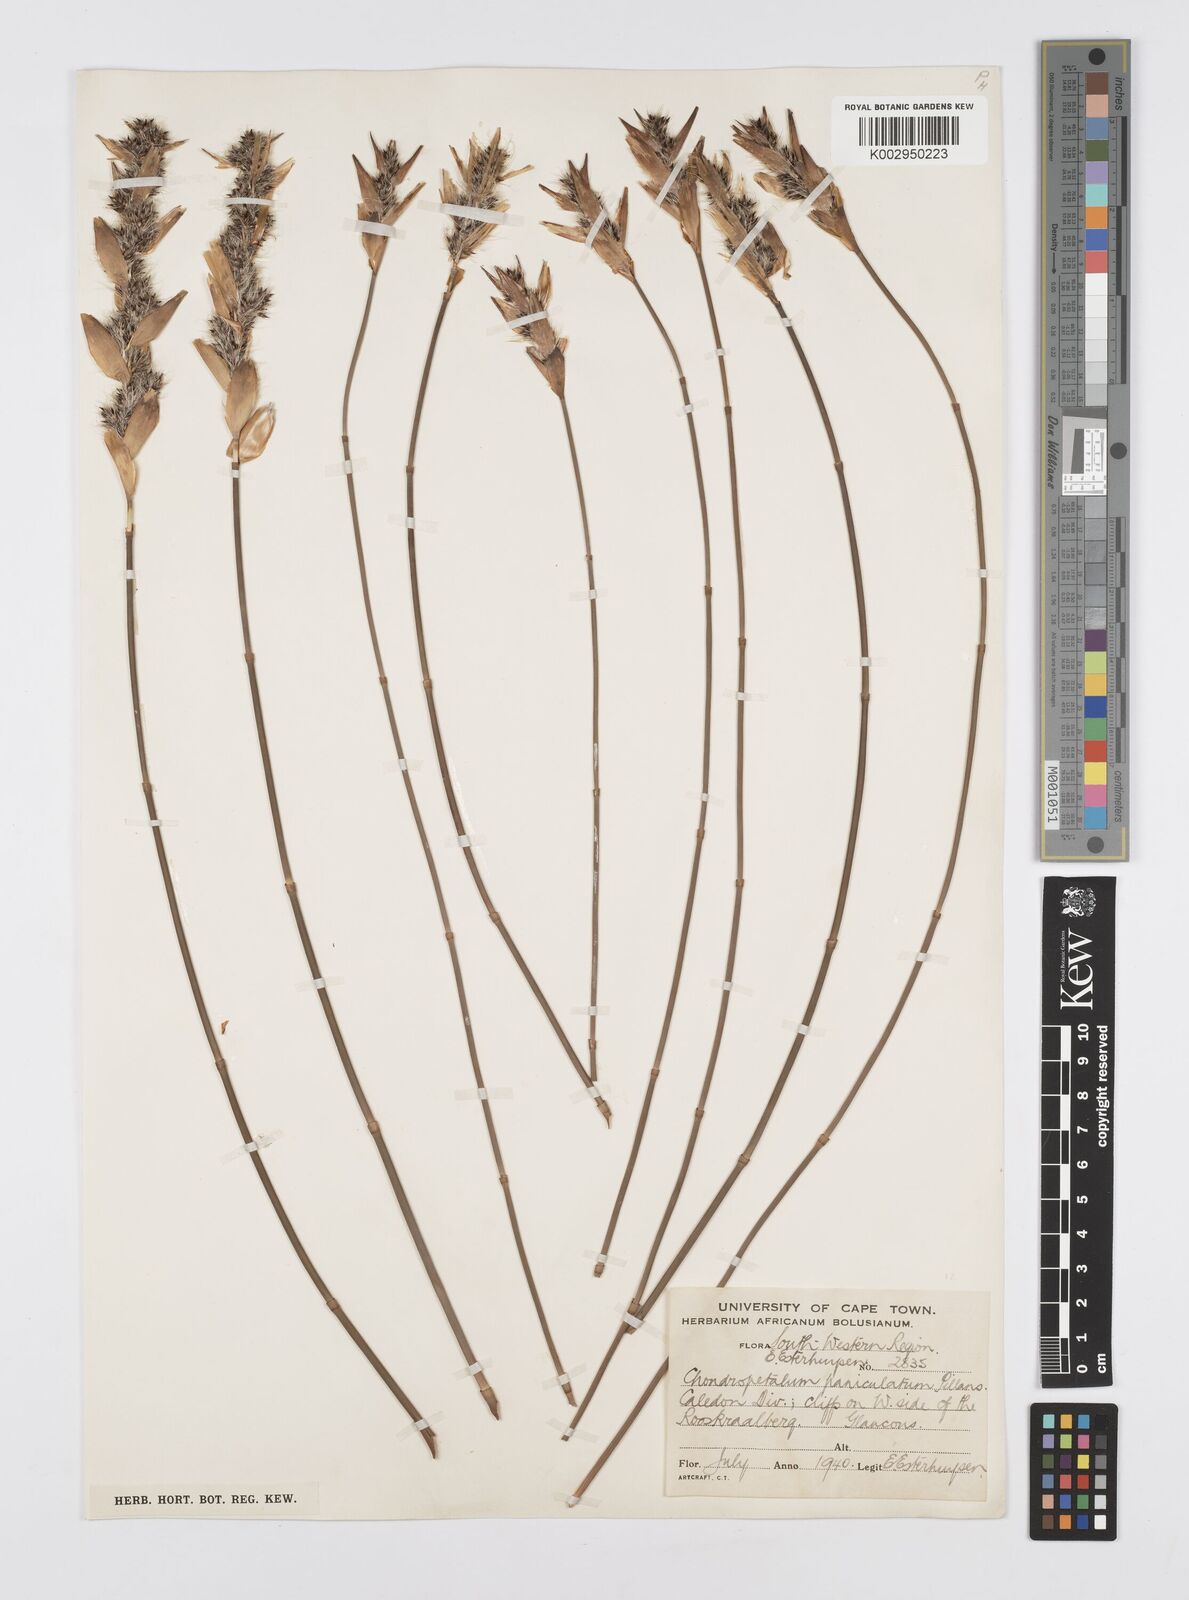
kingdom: Plantae
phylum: Tracheophyta
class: Liliopsida
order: Poales
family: Restionaceae
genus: Askidiosperma
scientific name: Askidiosperma paniculatum
